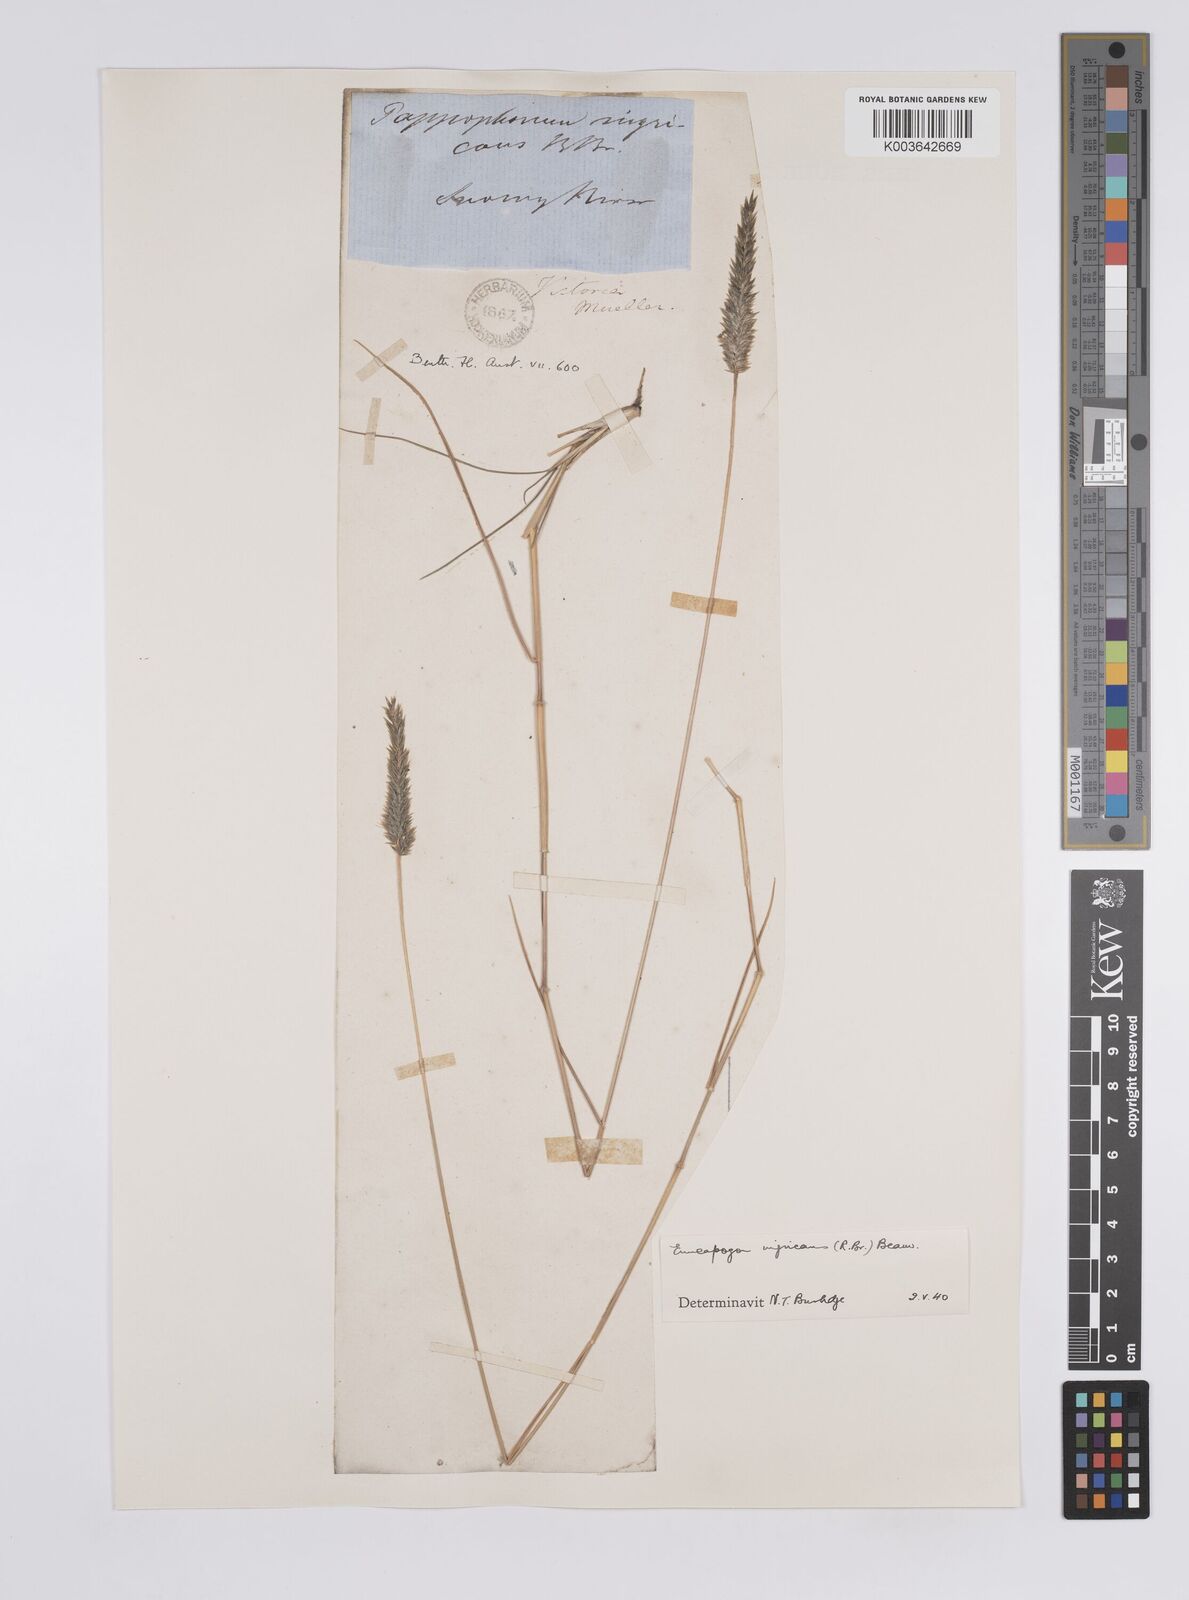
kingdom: Plantae
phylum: Tracheophyta
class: Liliopsida
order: Poales
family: Poaceae
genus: Enneapogon
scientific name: Enneapogon nigricans
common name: Pappus grass
